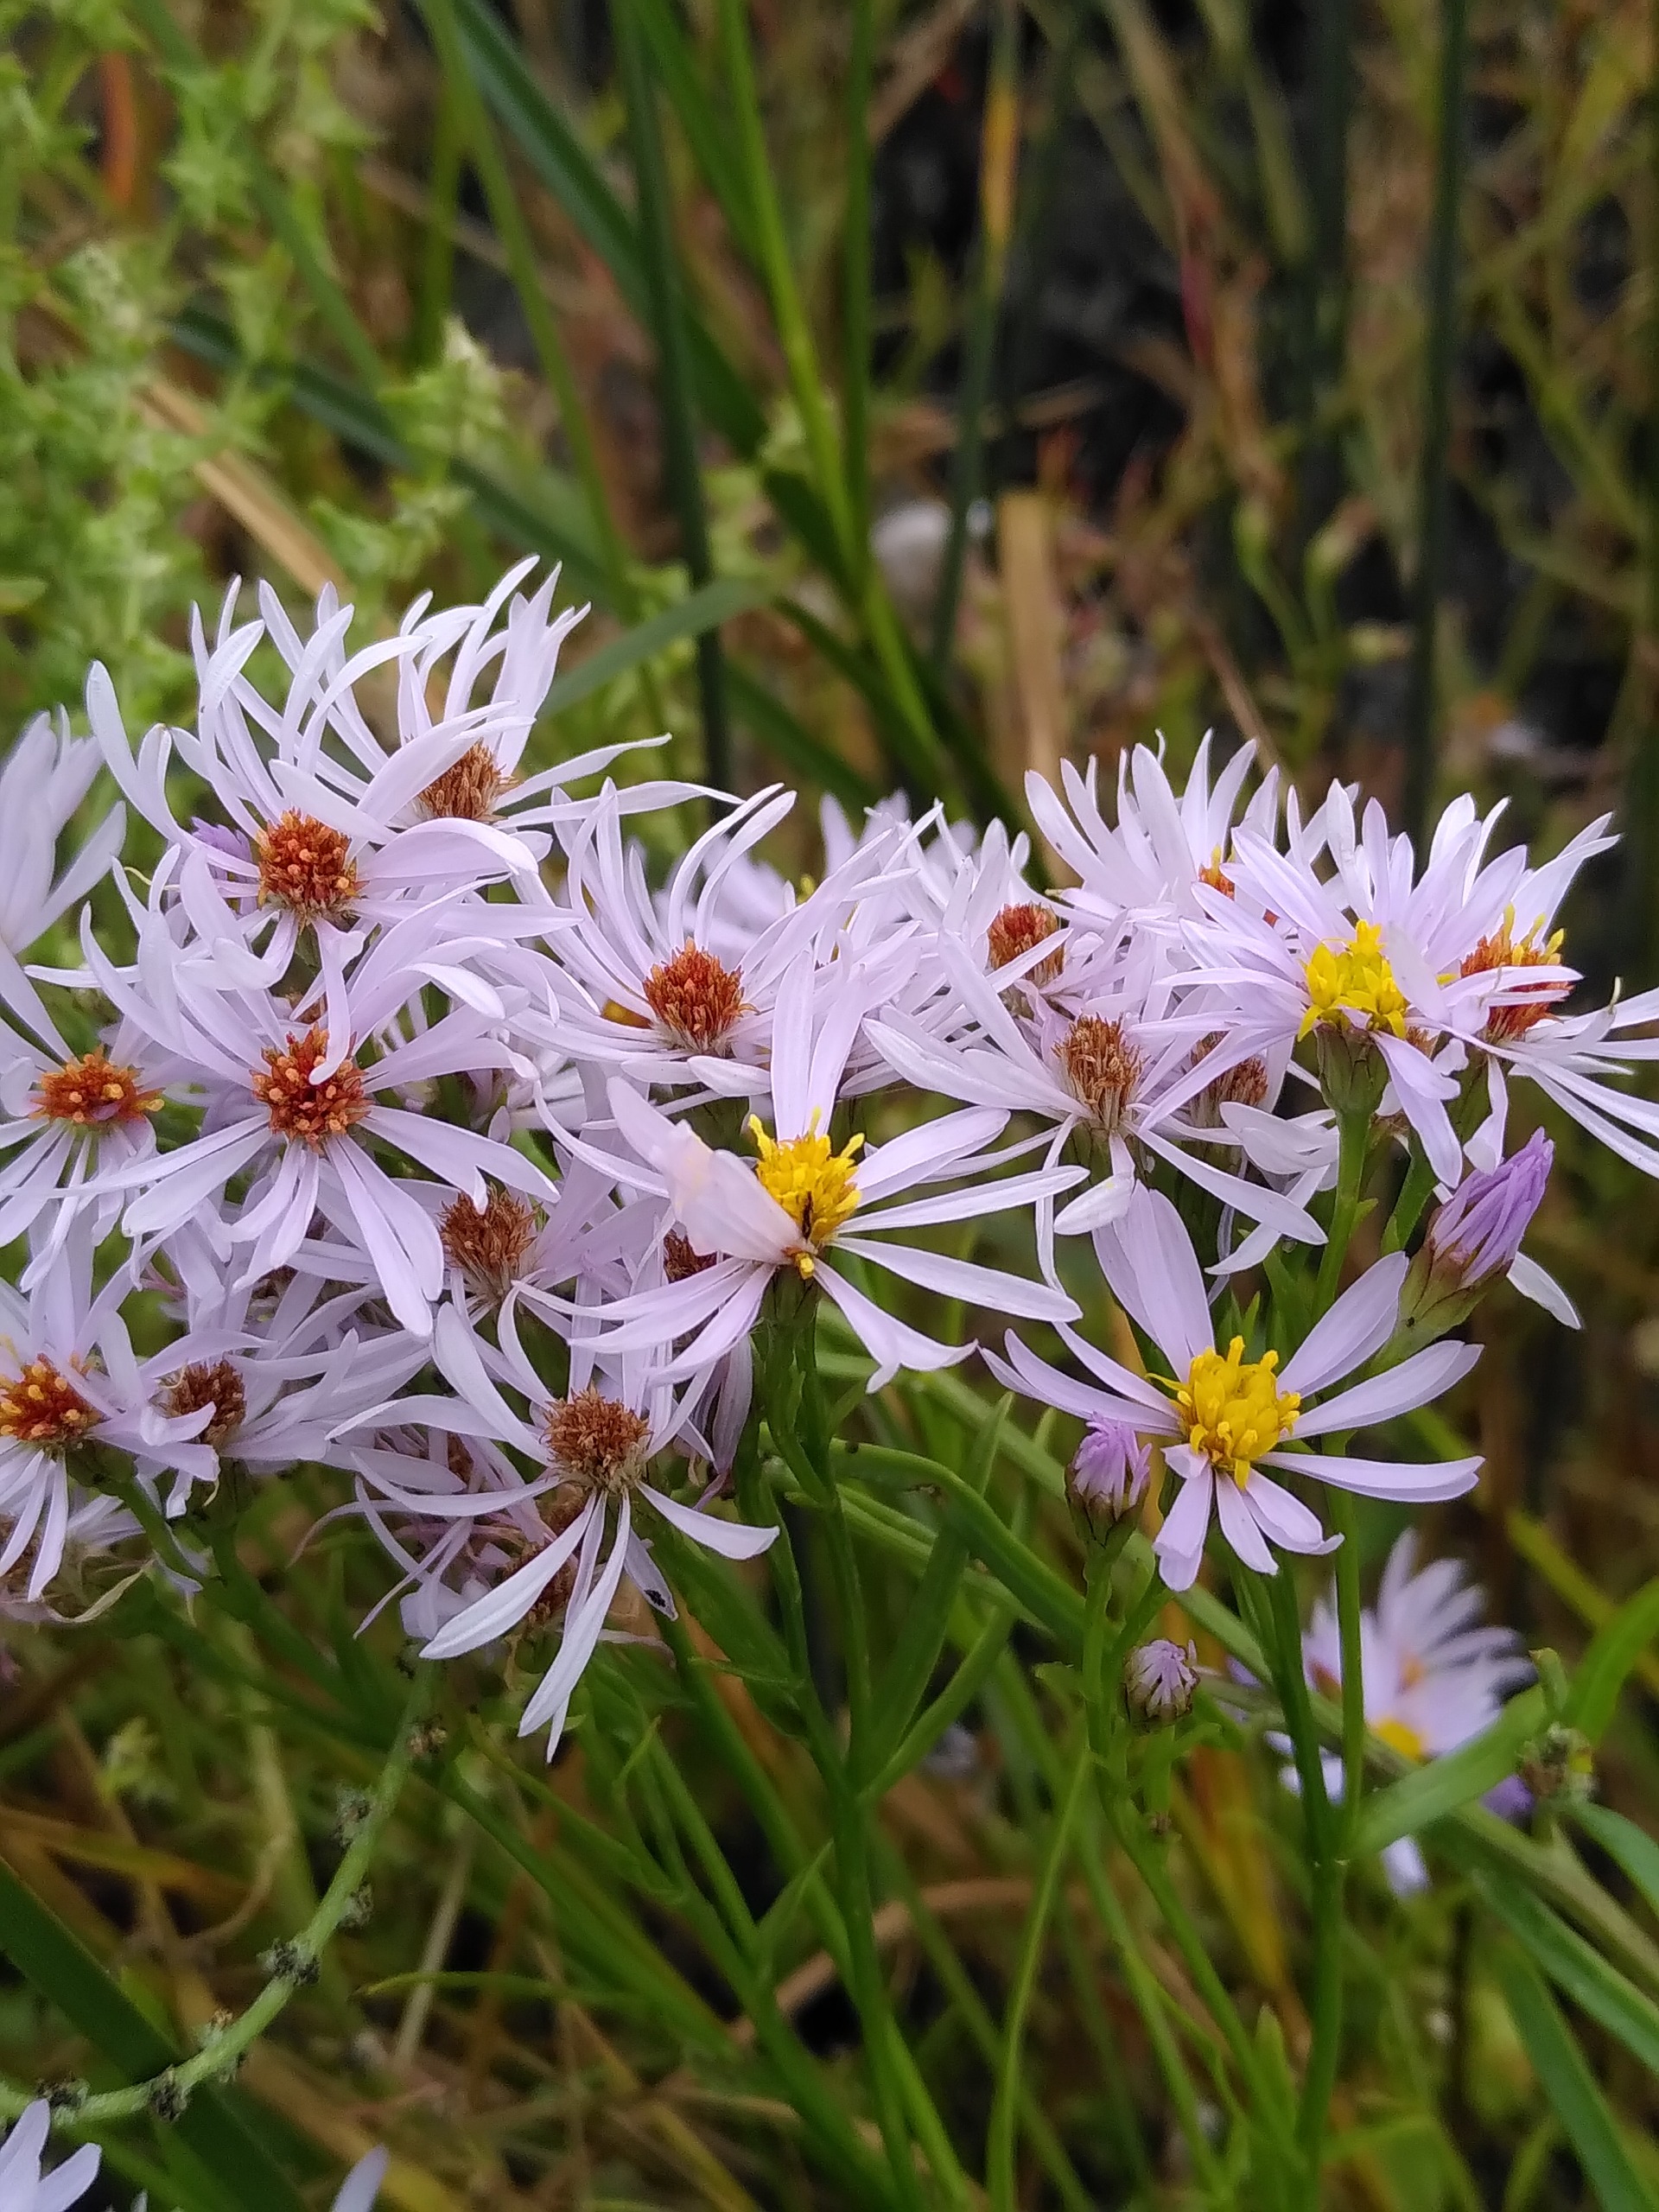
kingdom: Plantae
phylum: Tracheophyta
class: Magnoliopsida
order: Asterales
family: Asteraceae
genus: Tripolium
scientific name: Tripolium pannonicum
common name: Strandasters
